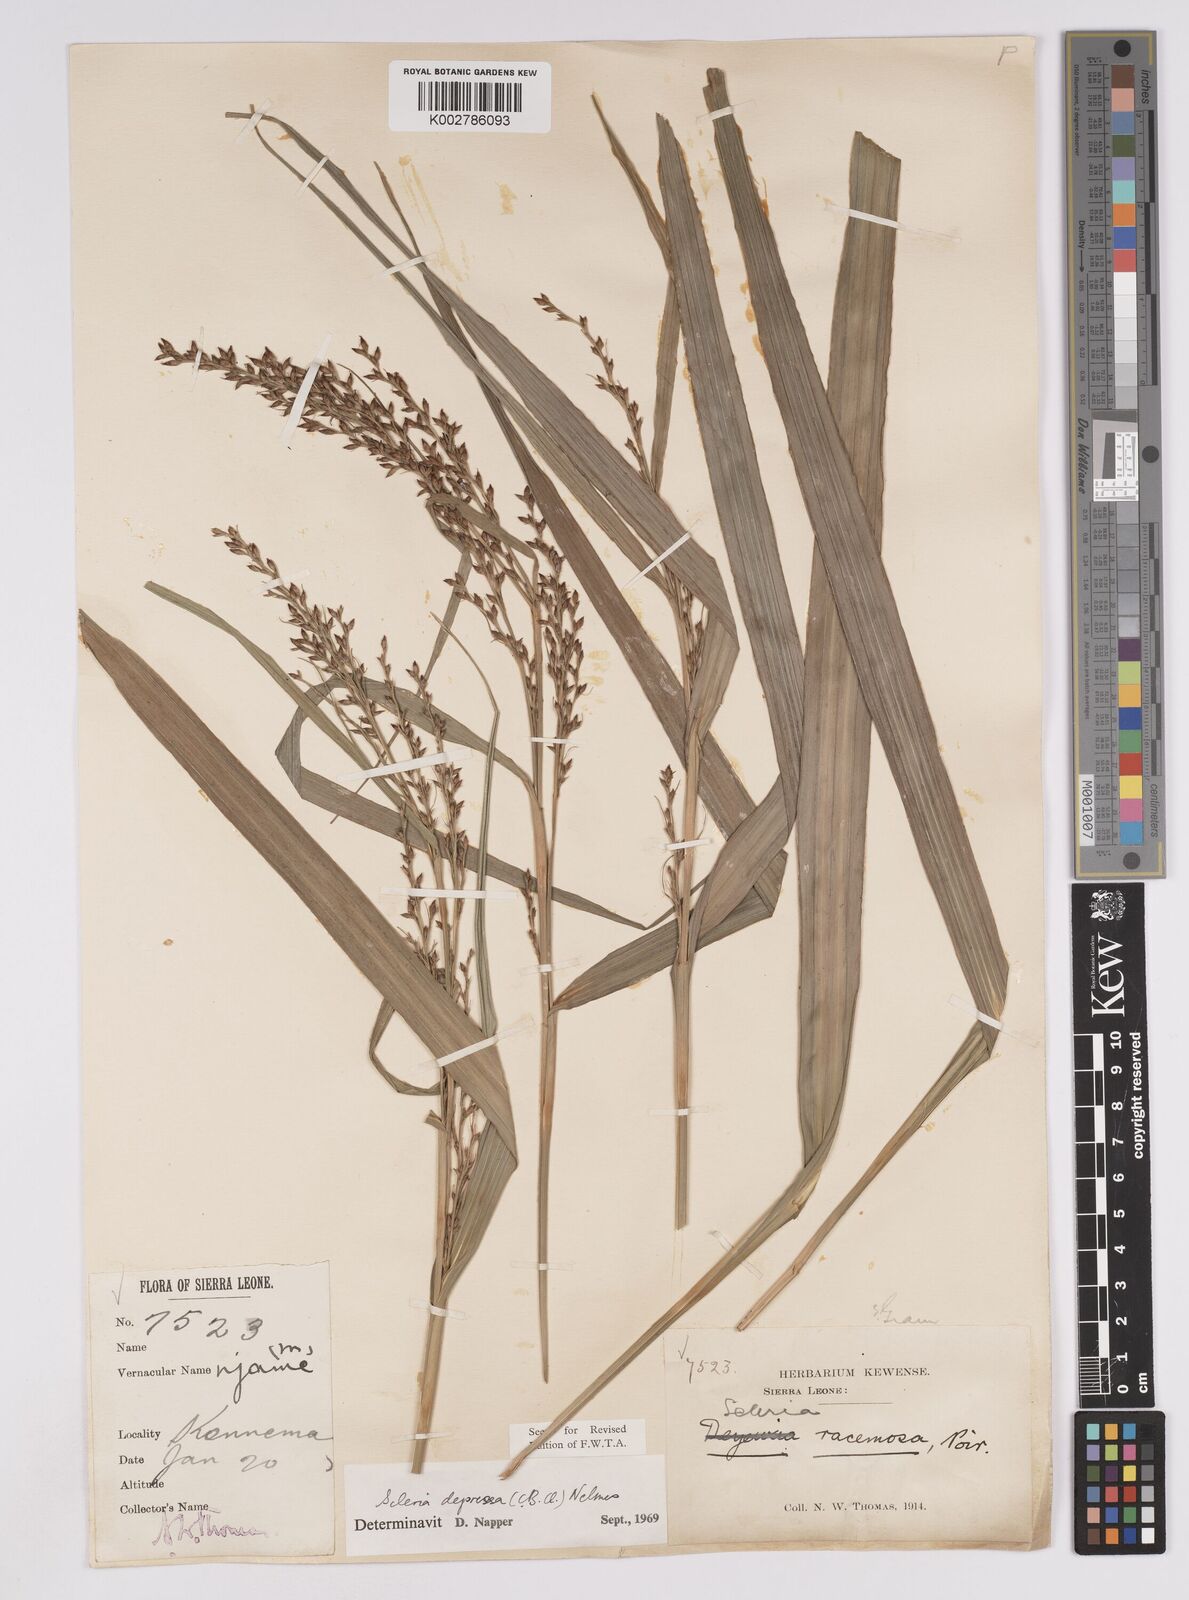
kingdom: Plantae
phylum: Tracheophyta
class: Liliopsida
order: Poales
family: Cyperaceae
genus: Scleria
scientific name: Scleria depressa
